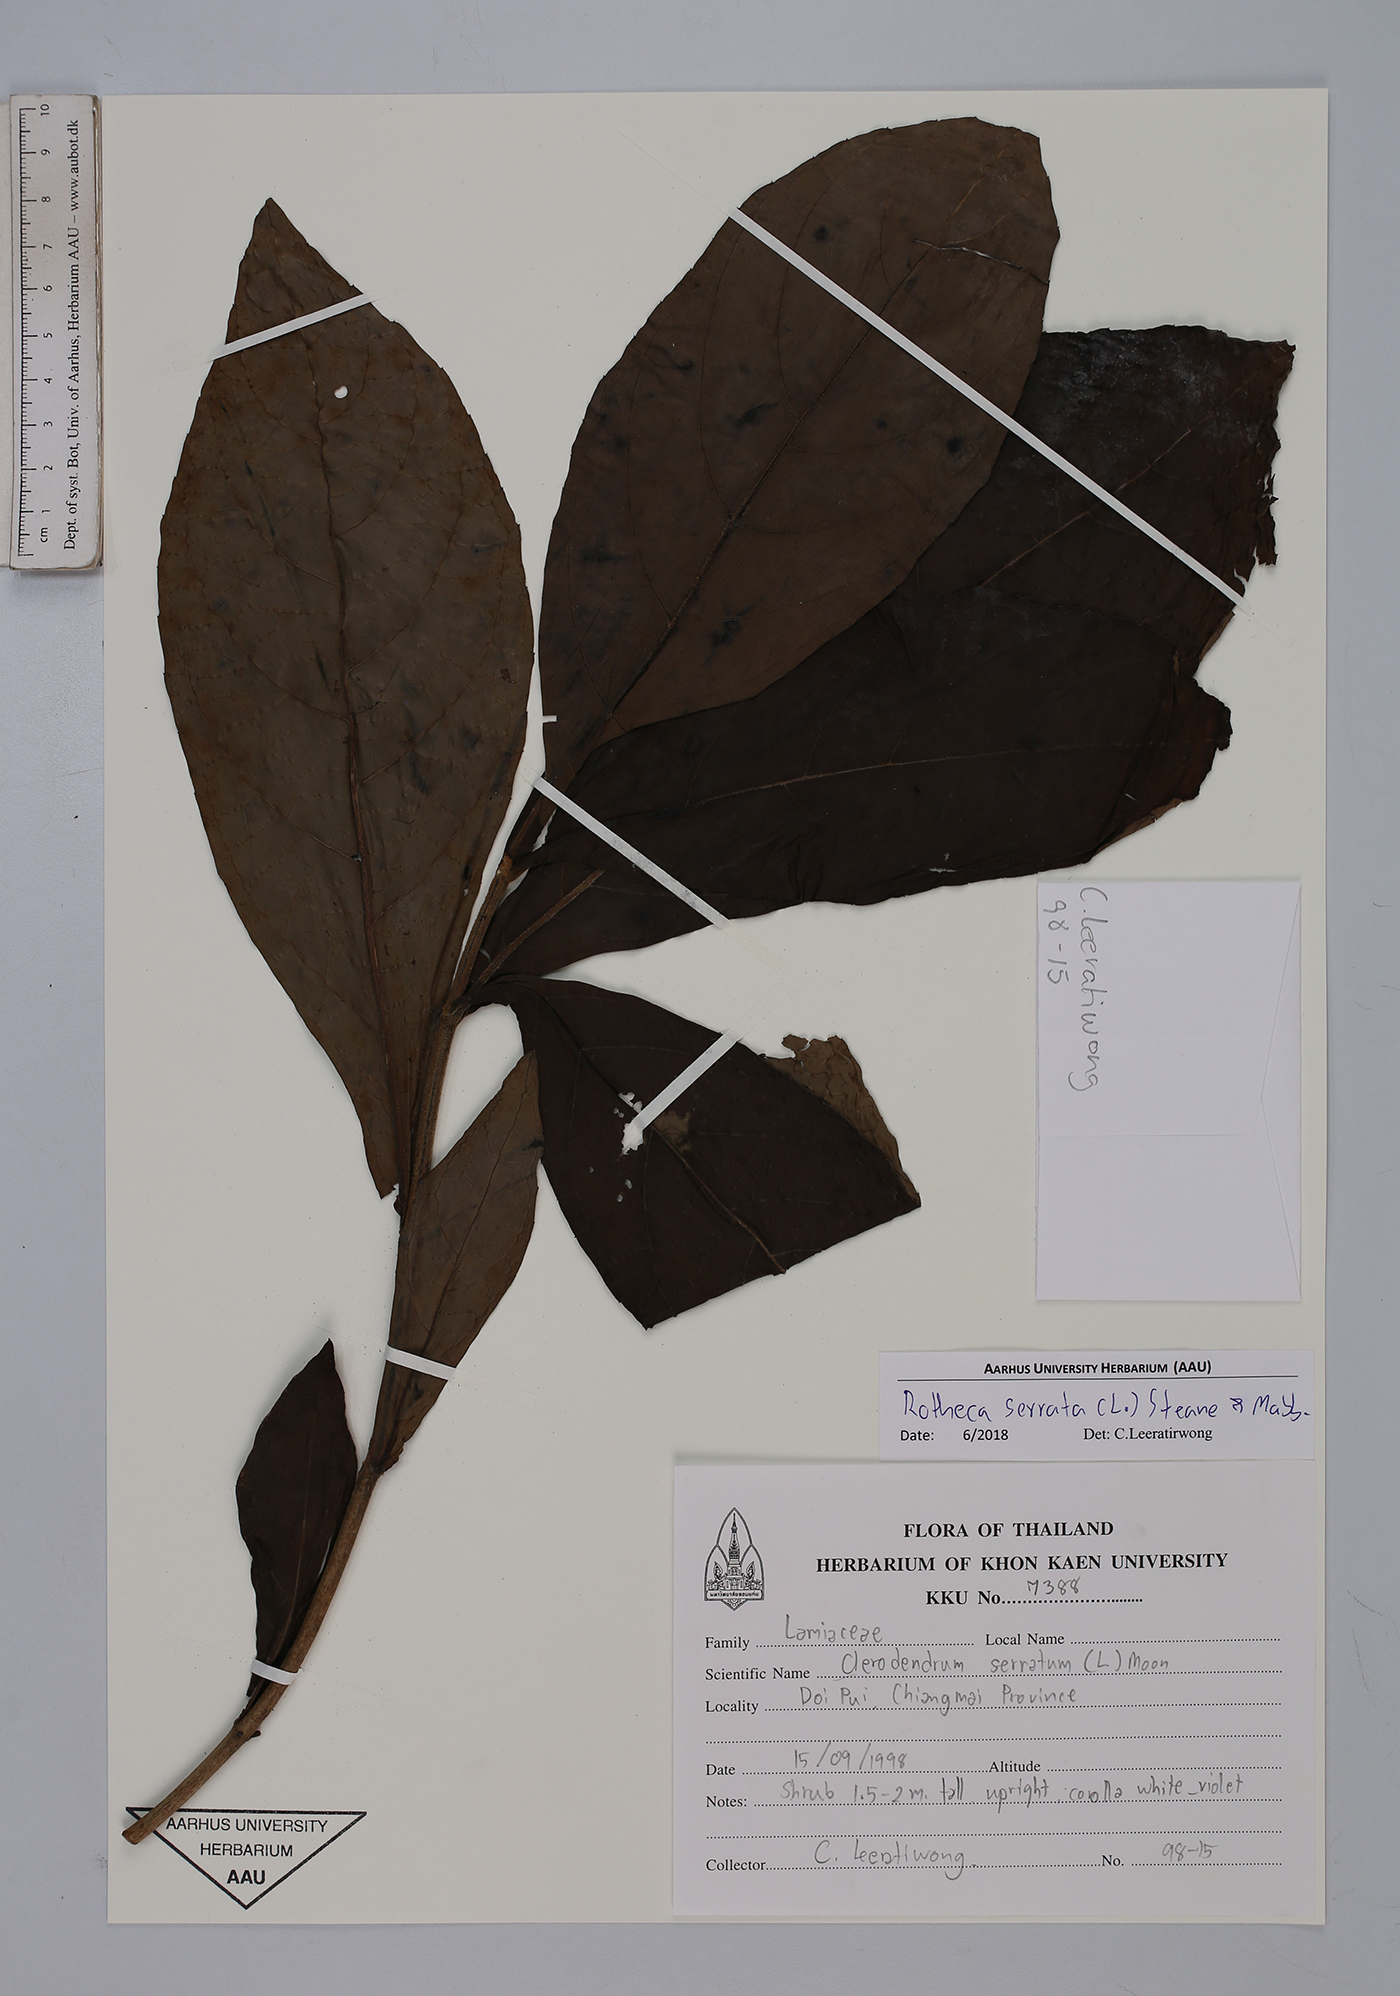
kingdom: Plantae
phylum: Tracheophyta
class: Magnoliopsida
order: Lamiales
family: Lamiaceae
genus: Rotheca
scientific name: Rotheca serrata
